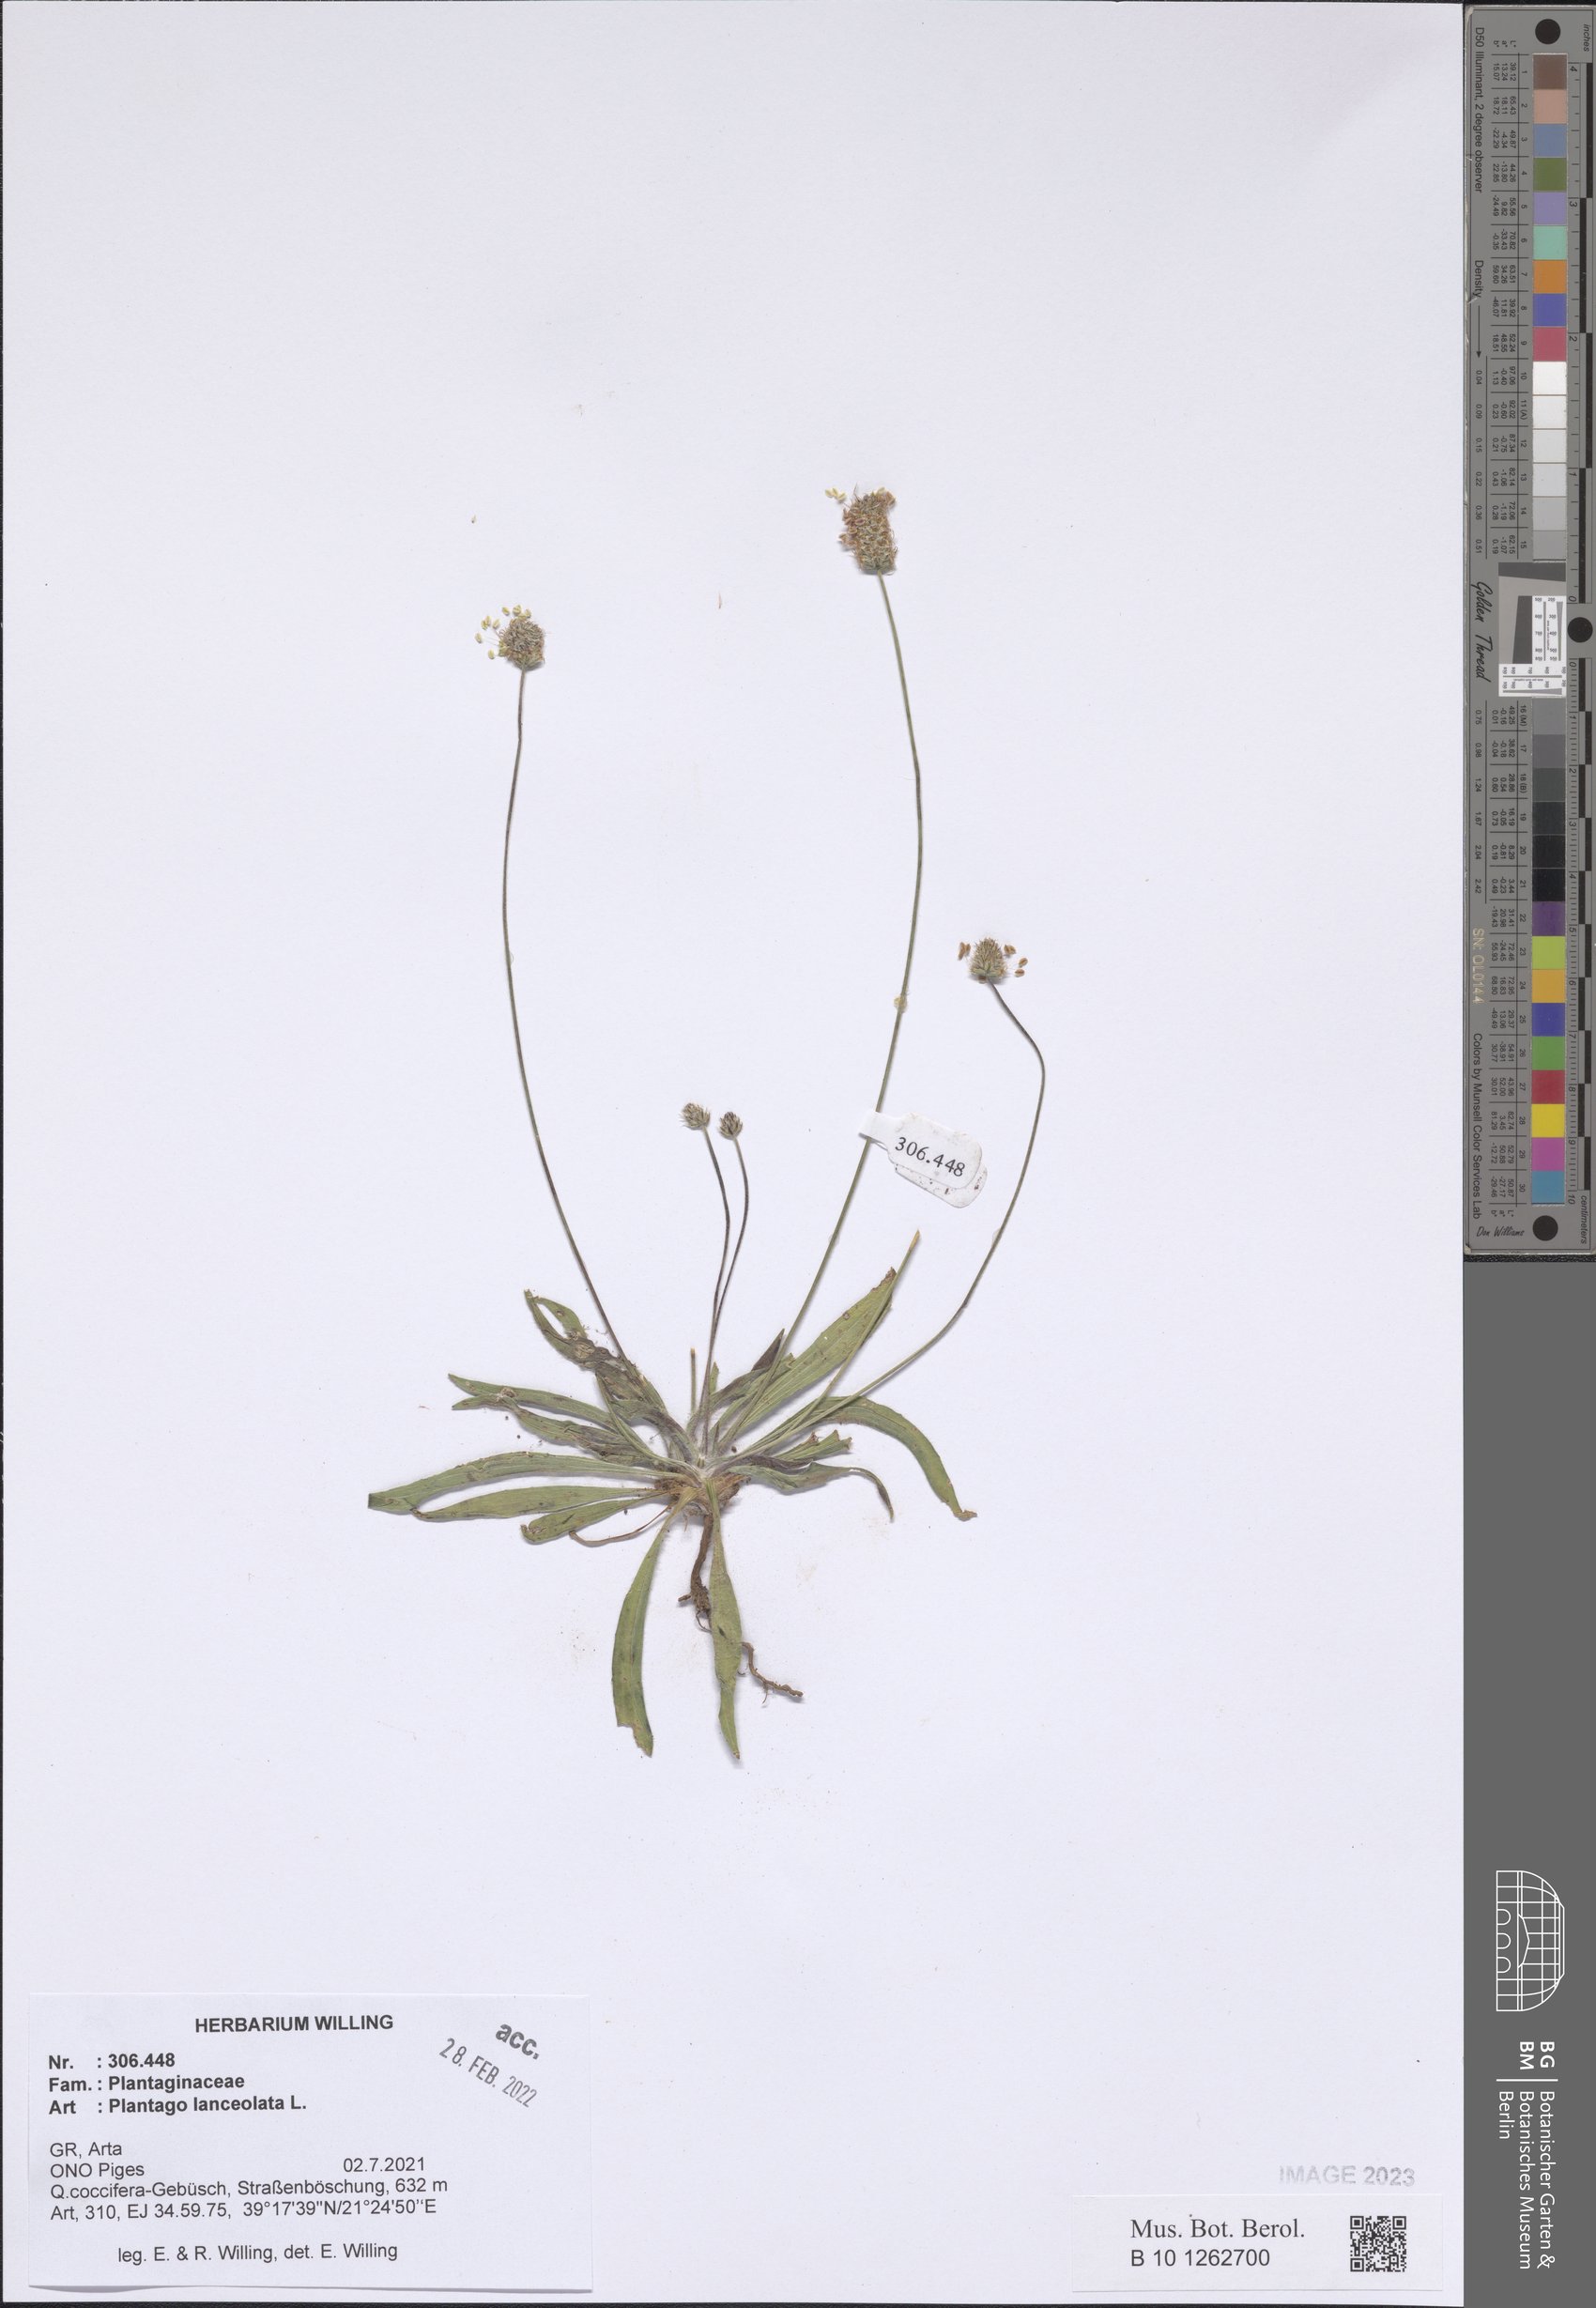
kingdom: Plantae
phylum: Tracheophyta
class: Magnoliopsida
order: Lamiales
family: Plantaginaceae
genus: Plantago
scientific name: Plantago lanceolata
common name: Ribwort plantain
